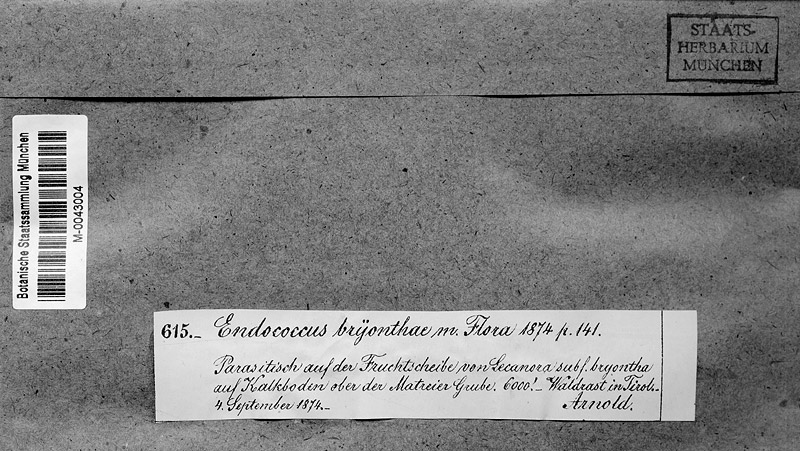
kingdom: Fungi
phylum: Ascomycota
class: Dothideomycetes
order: Pleosporales
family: Phaeosphaeriaceae
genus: Didymocyrtis
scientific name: Didymocyrtis bryonthae
